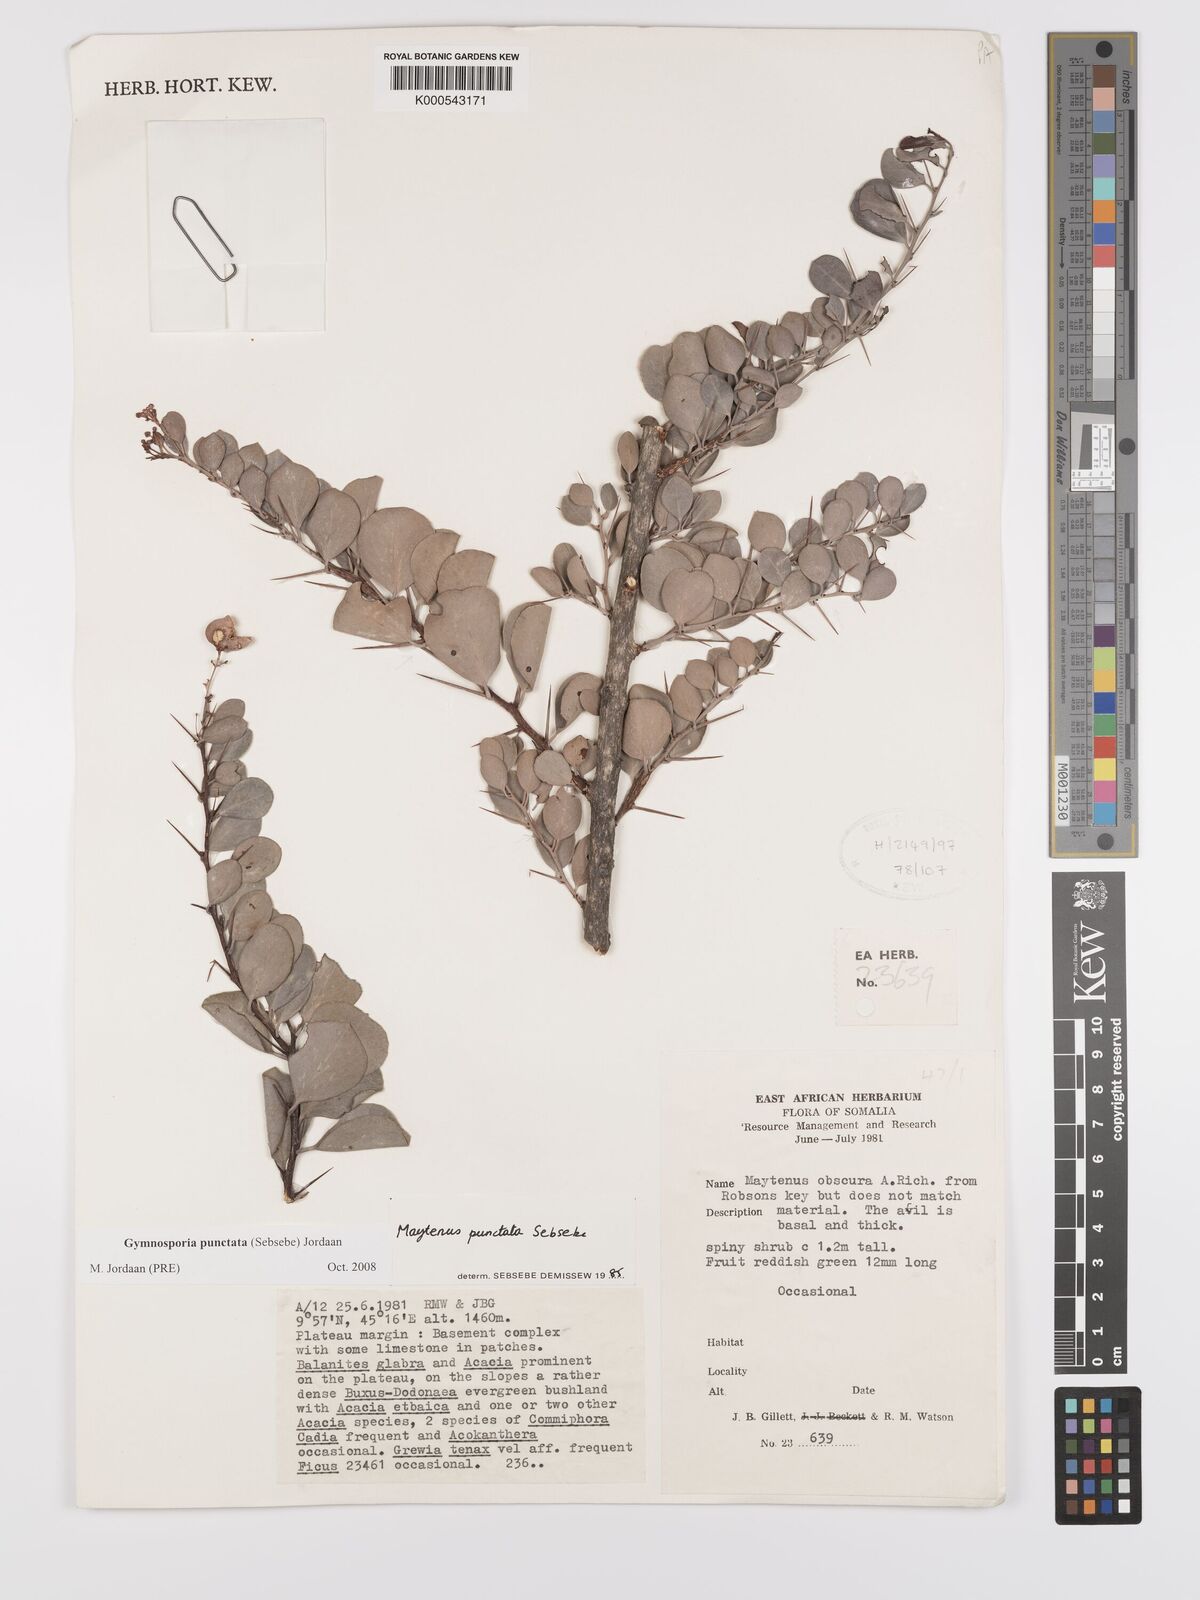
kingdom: Plantae
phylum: Tracheophyta
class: Magnoliopsida
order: Celastrales
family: Celastraceae
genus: Gymnosporia
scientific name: Gymnosporia punctata
